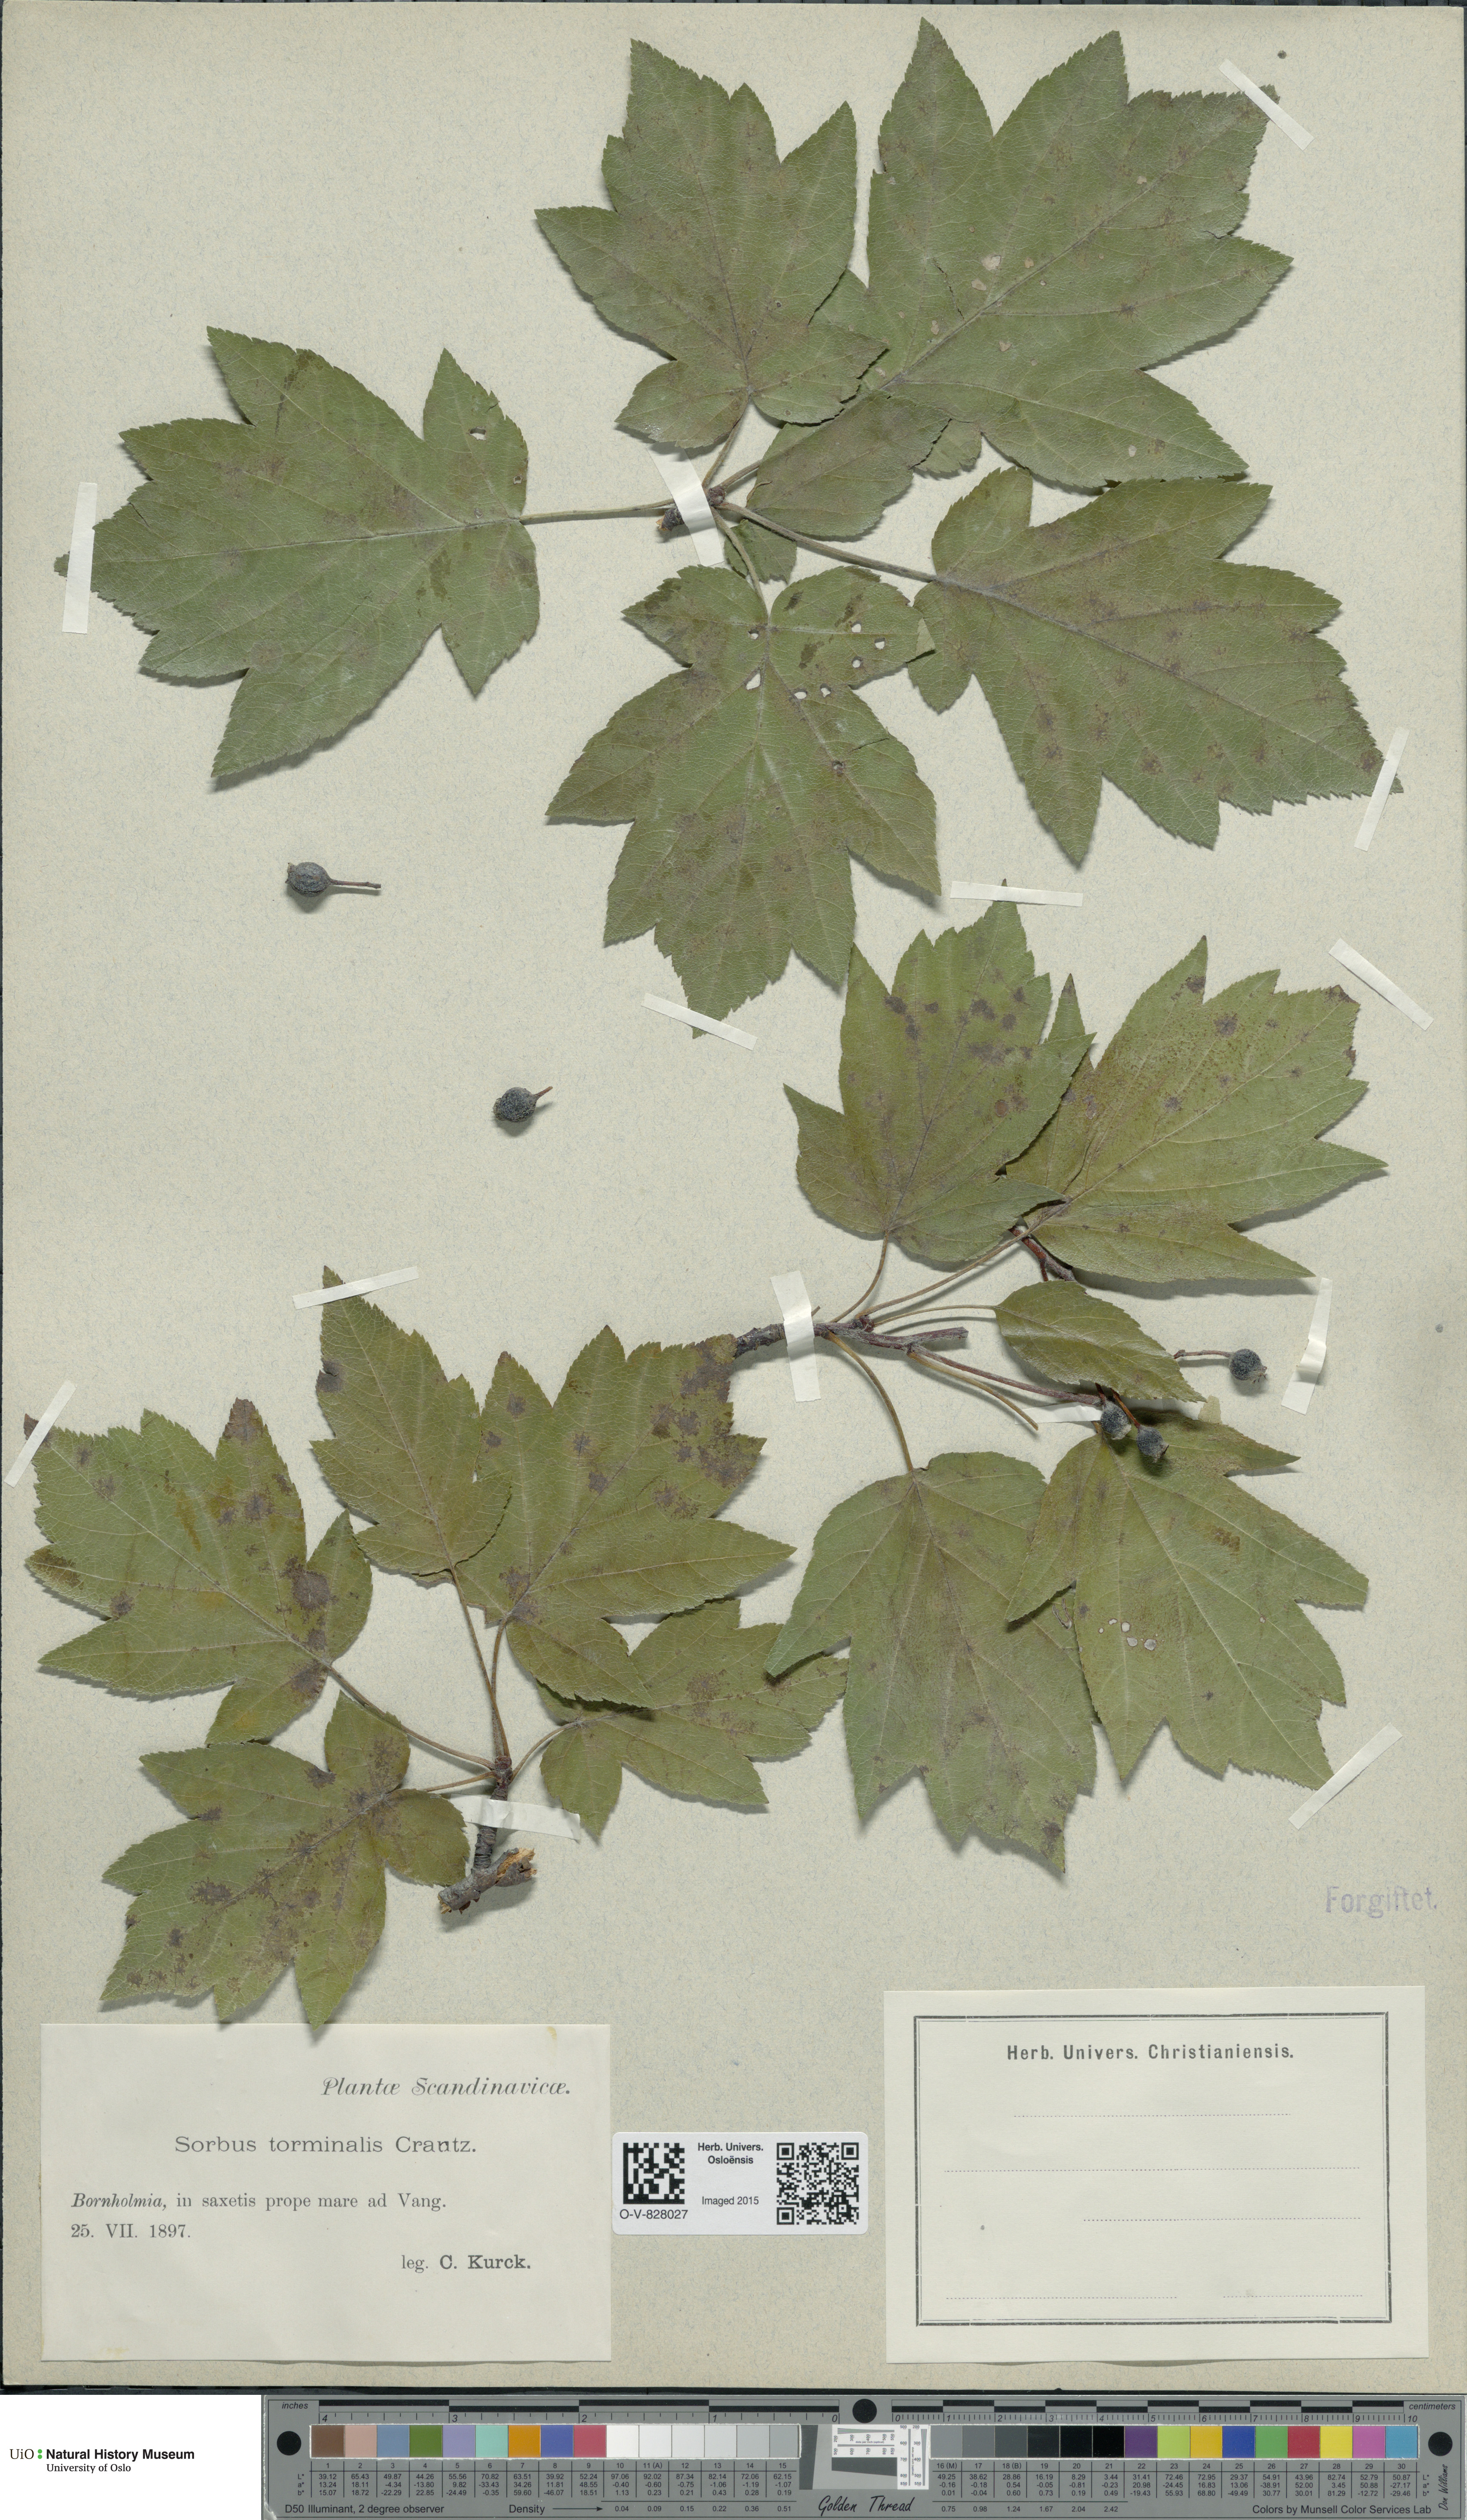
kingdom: Plantae
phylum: Tracheophyta
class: Magnoliopsida
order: Rosales
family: Rosaceae
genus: Torminalis
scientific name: Torminalis glaberrima
